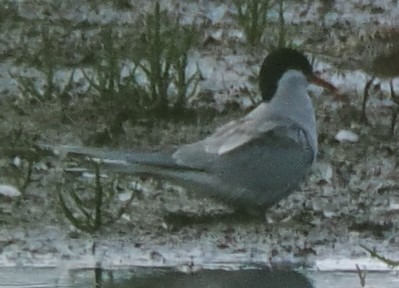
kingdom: Animalia
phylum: Chordata
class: Aves
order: Charadriiformes
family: Laridae
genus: Sterna
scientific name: Sterna paradisaea
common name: Havterne
